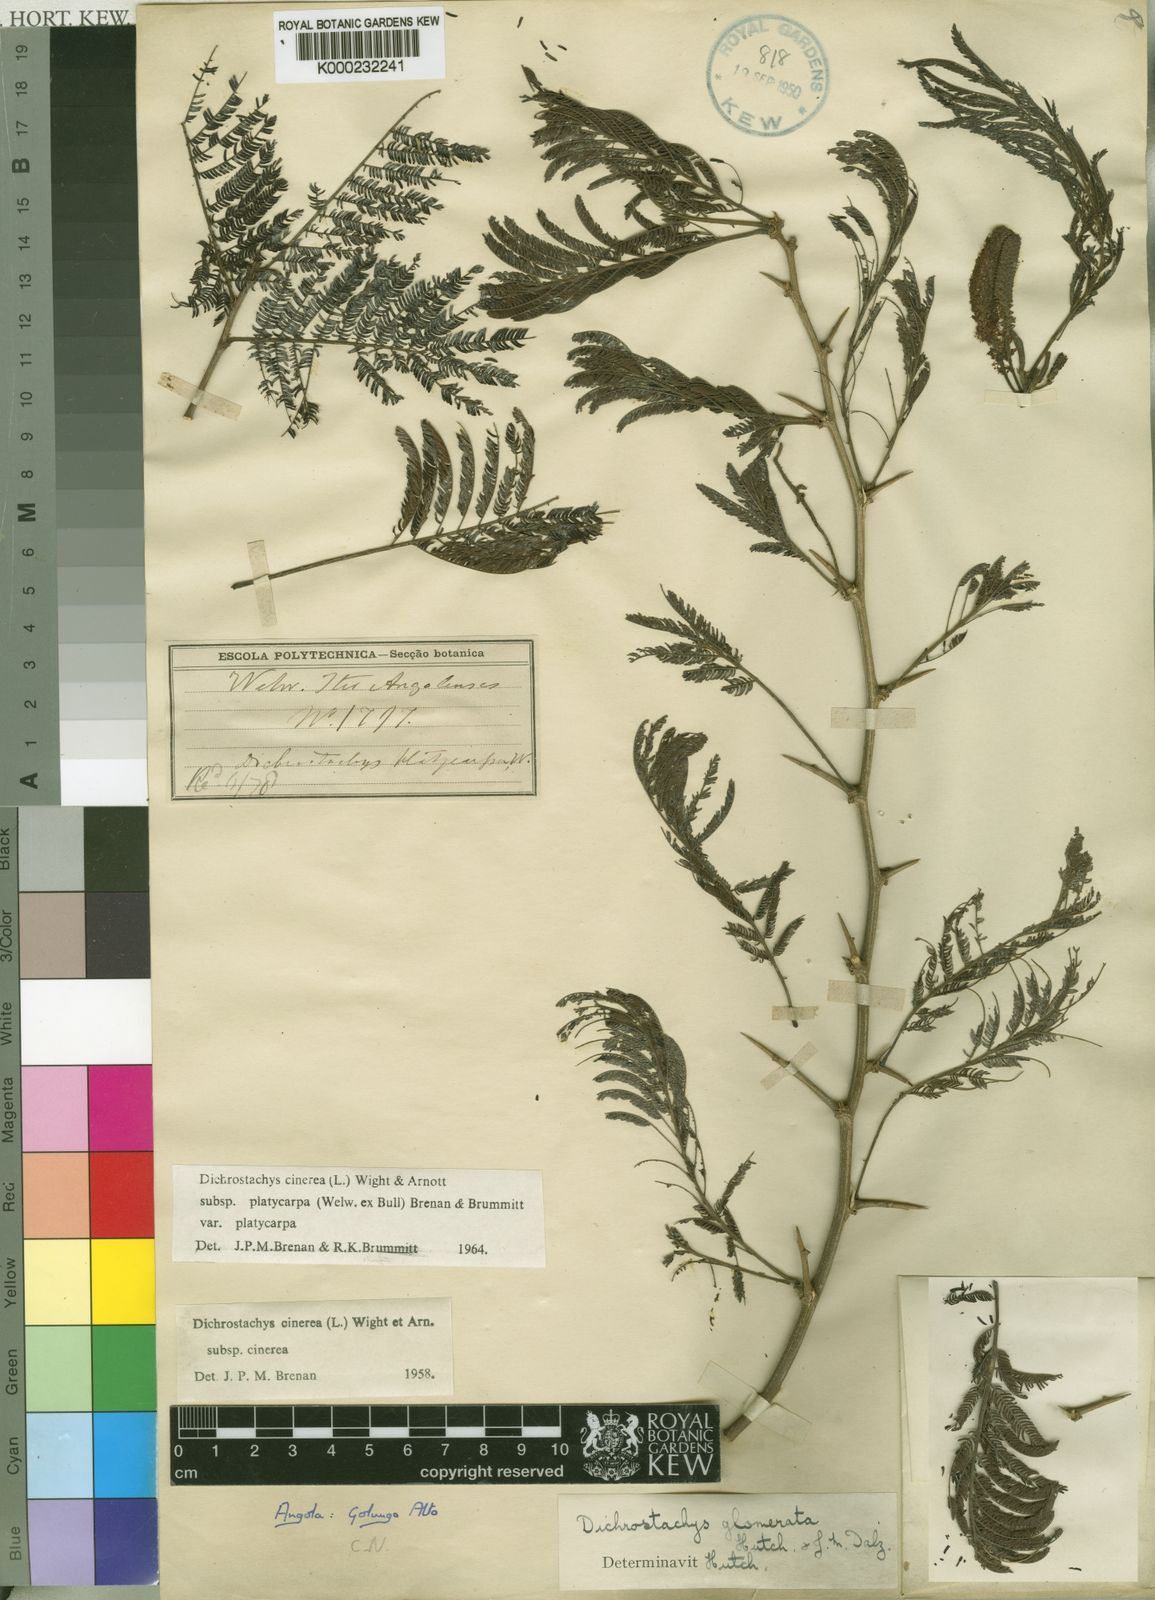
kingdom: Plantae
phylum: Tracheophyta
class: Magnoliopsida
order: Fabales
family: Fabaceae
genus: Dichrostachys
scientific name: Dichrostachys cinerea
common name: Sicklebush
